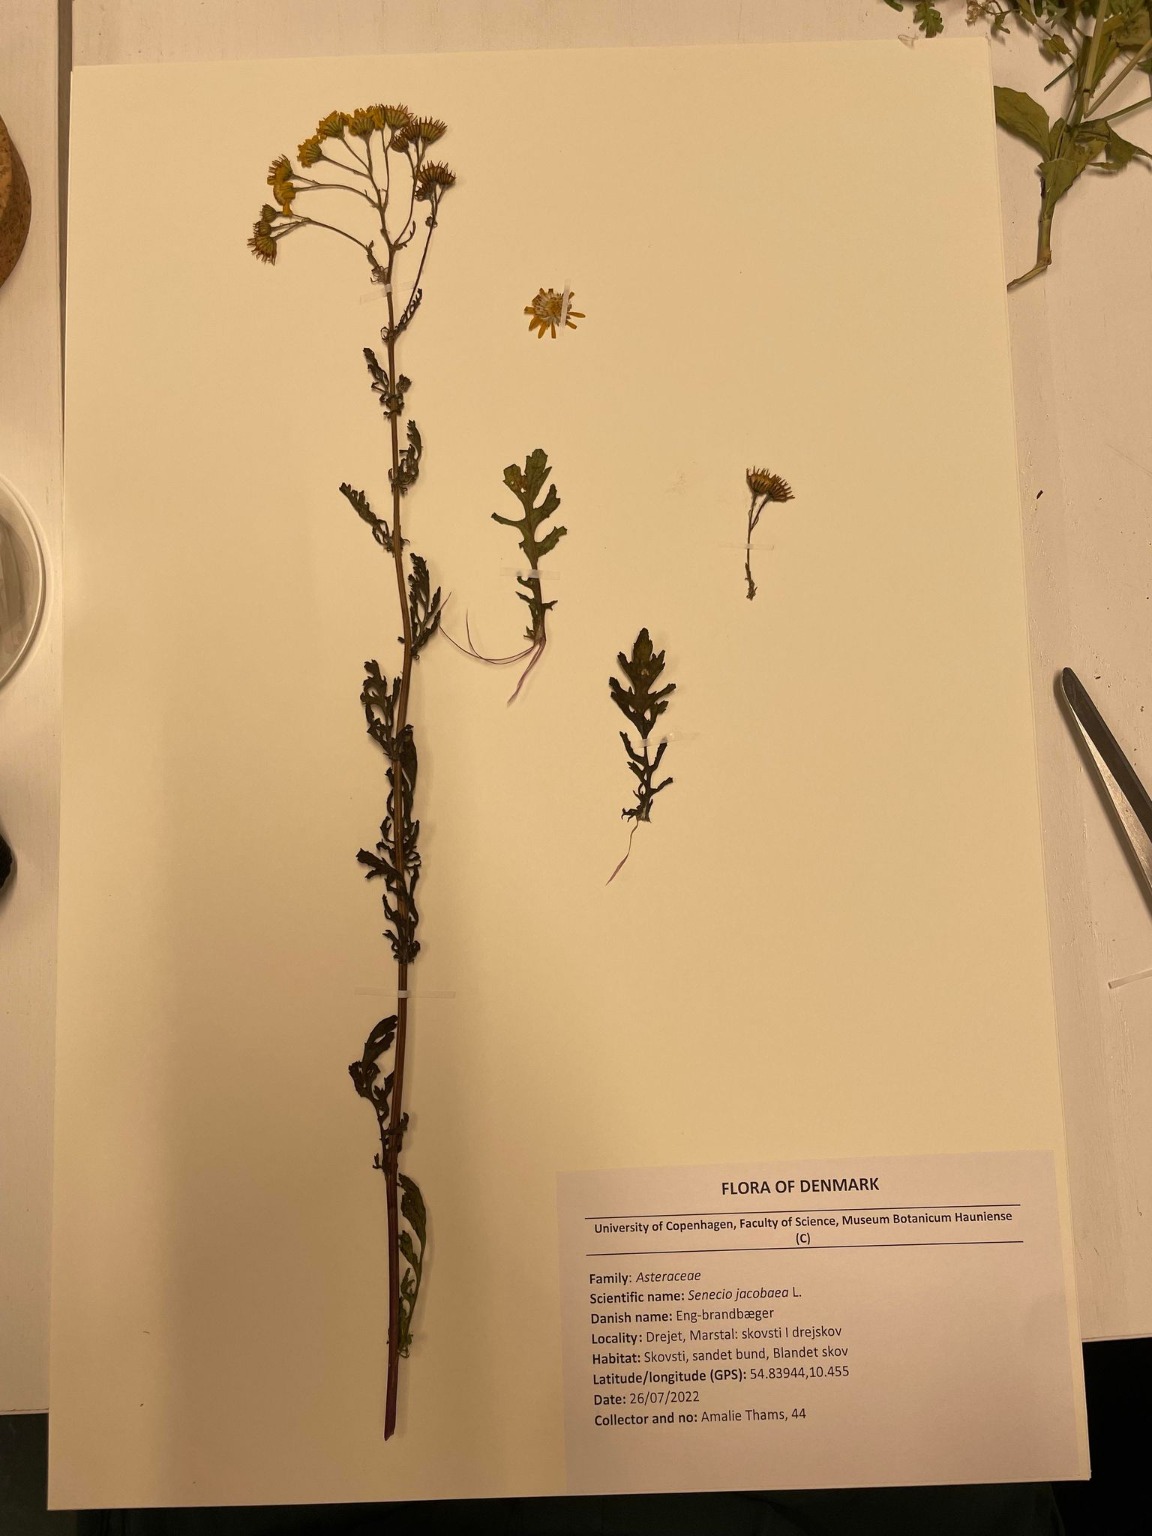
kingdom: Plantae
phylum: Tracheophyta
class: Magnoliopsida
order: Asterales
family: Asteraceae
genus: Jacobaea
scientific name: Jacobaea aquatica
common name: Vand-brandbæger
